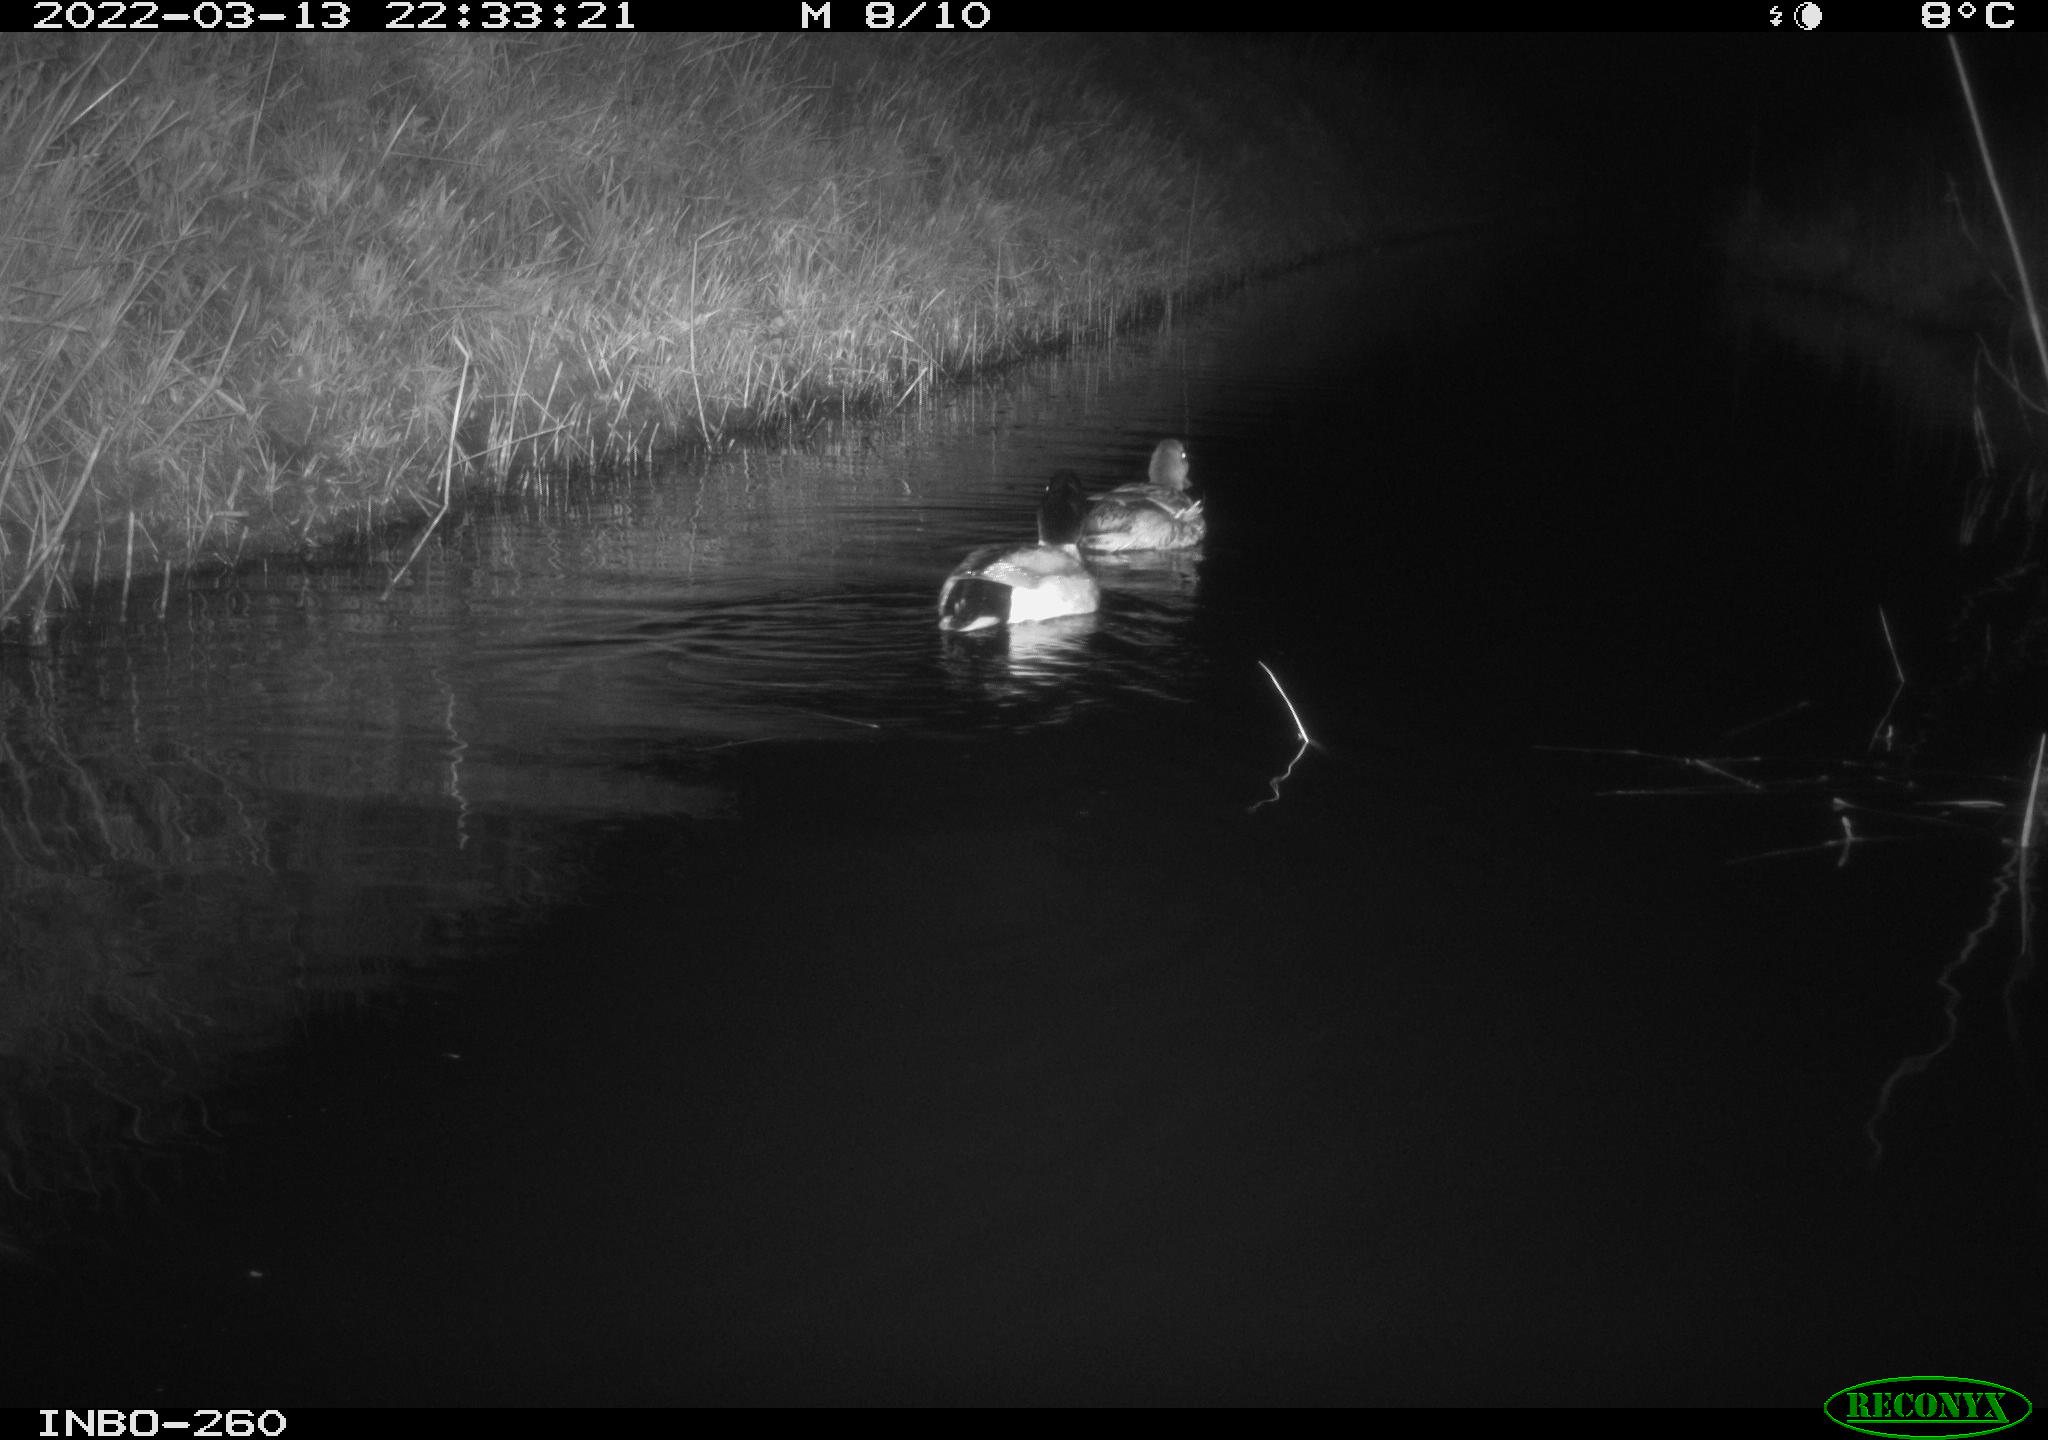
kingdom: Animalia
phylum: Chordata
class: Aves
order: Anseriformes
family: Anatidae
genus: Anas
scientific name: Anas platyrhynchos
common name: Mallard
